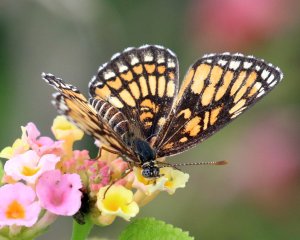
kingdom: Animalia
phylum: Arthropoda
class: Insecta
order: Lepidoptera
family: Nymphalidae
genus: Thessalia
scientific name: Thessalia theona
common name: Theona Checkerspot
